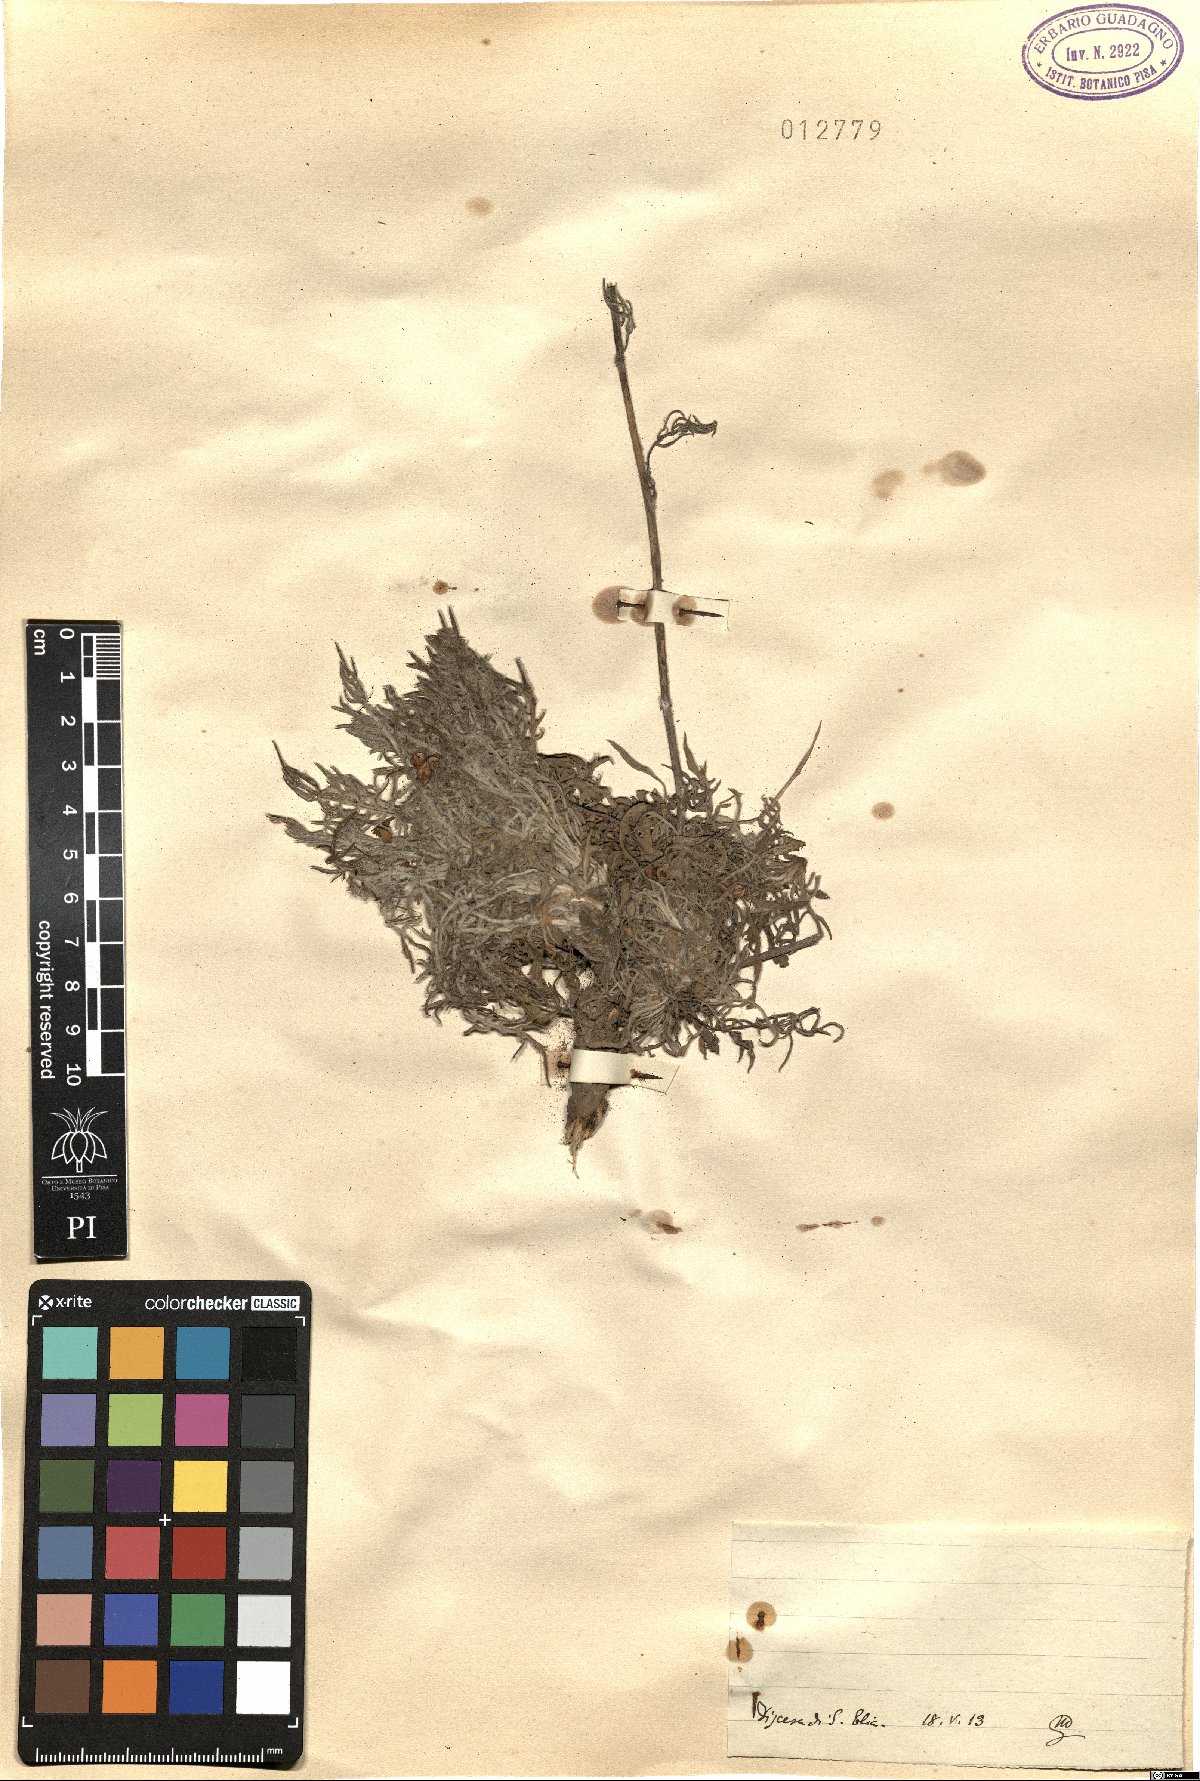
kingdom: Plantae
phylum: Tracheophyta
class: Magnoliopsida
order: Asterales
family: Asteraceae
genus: Centaurea
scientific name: Centaurea
